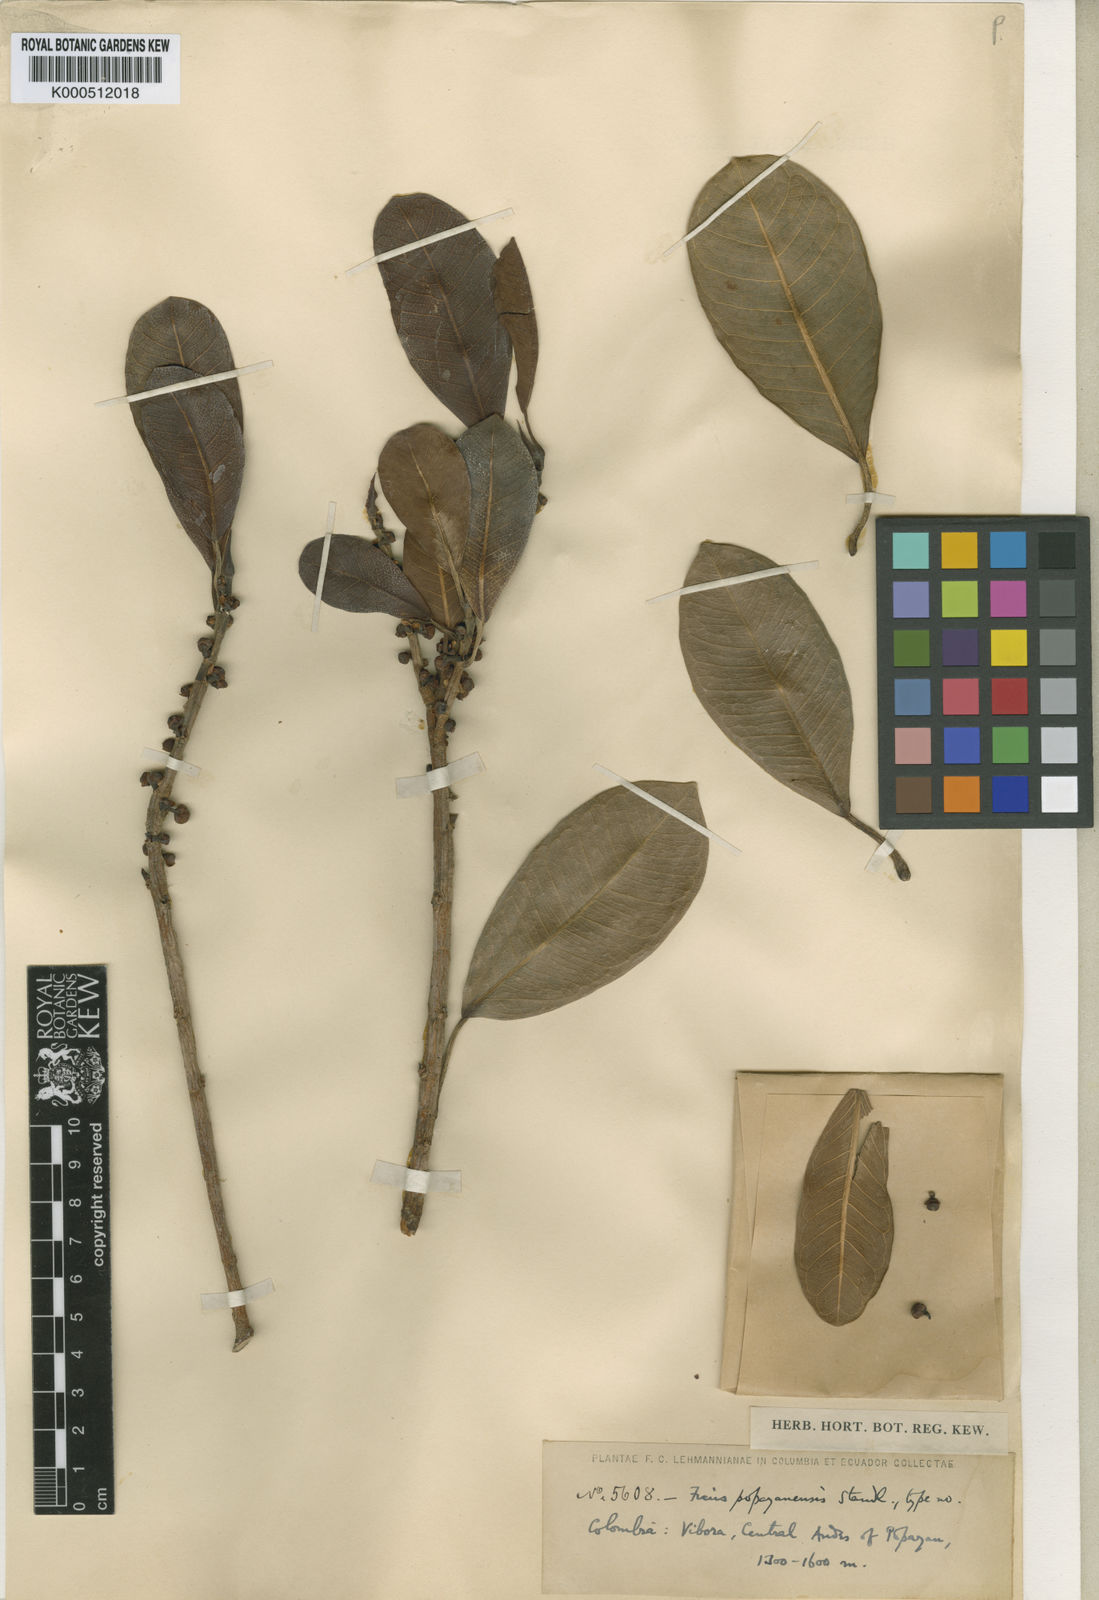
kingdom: Plantae
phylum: Tracheophyta
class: Magnoliopsida
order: Rosales
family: Moraceae
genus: Ficus
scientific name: Ficus popayanensis
